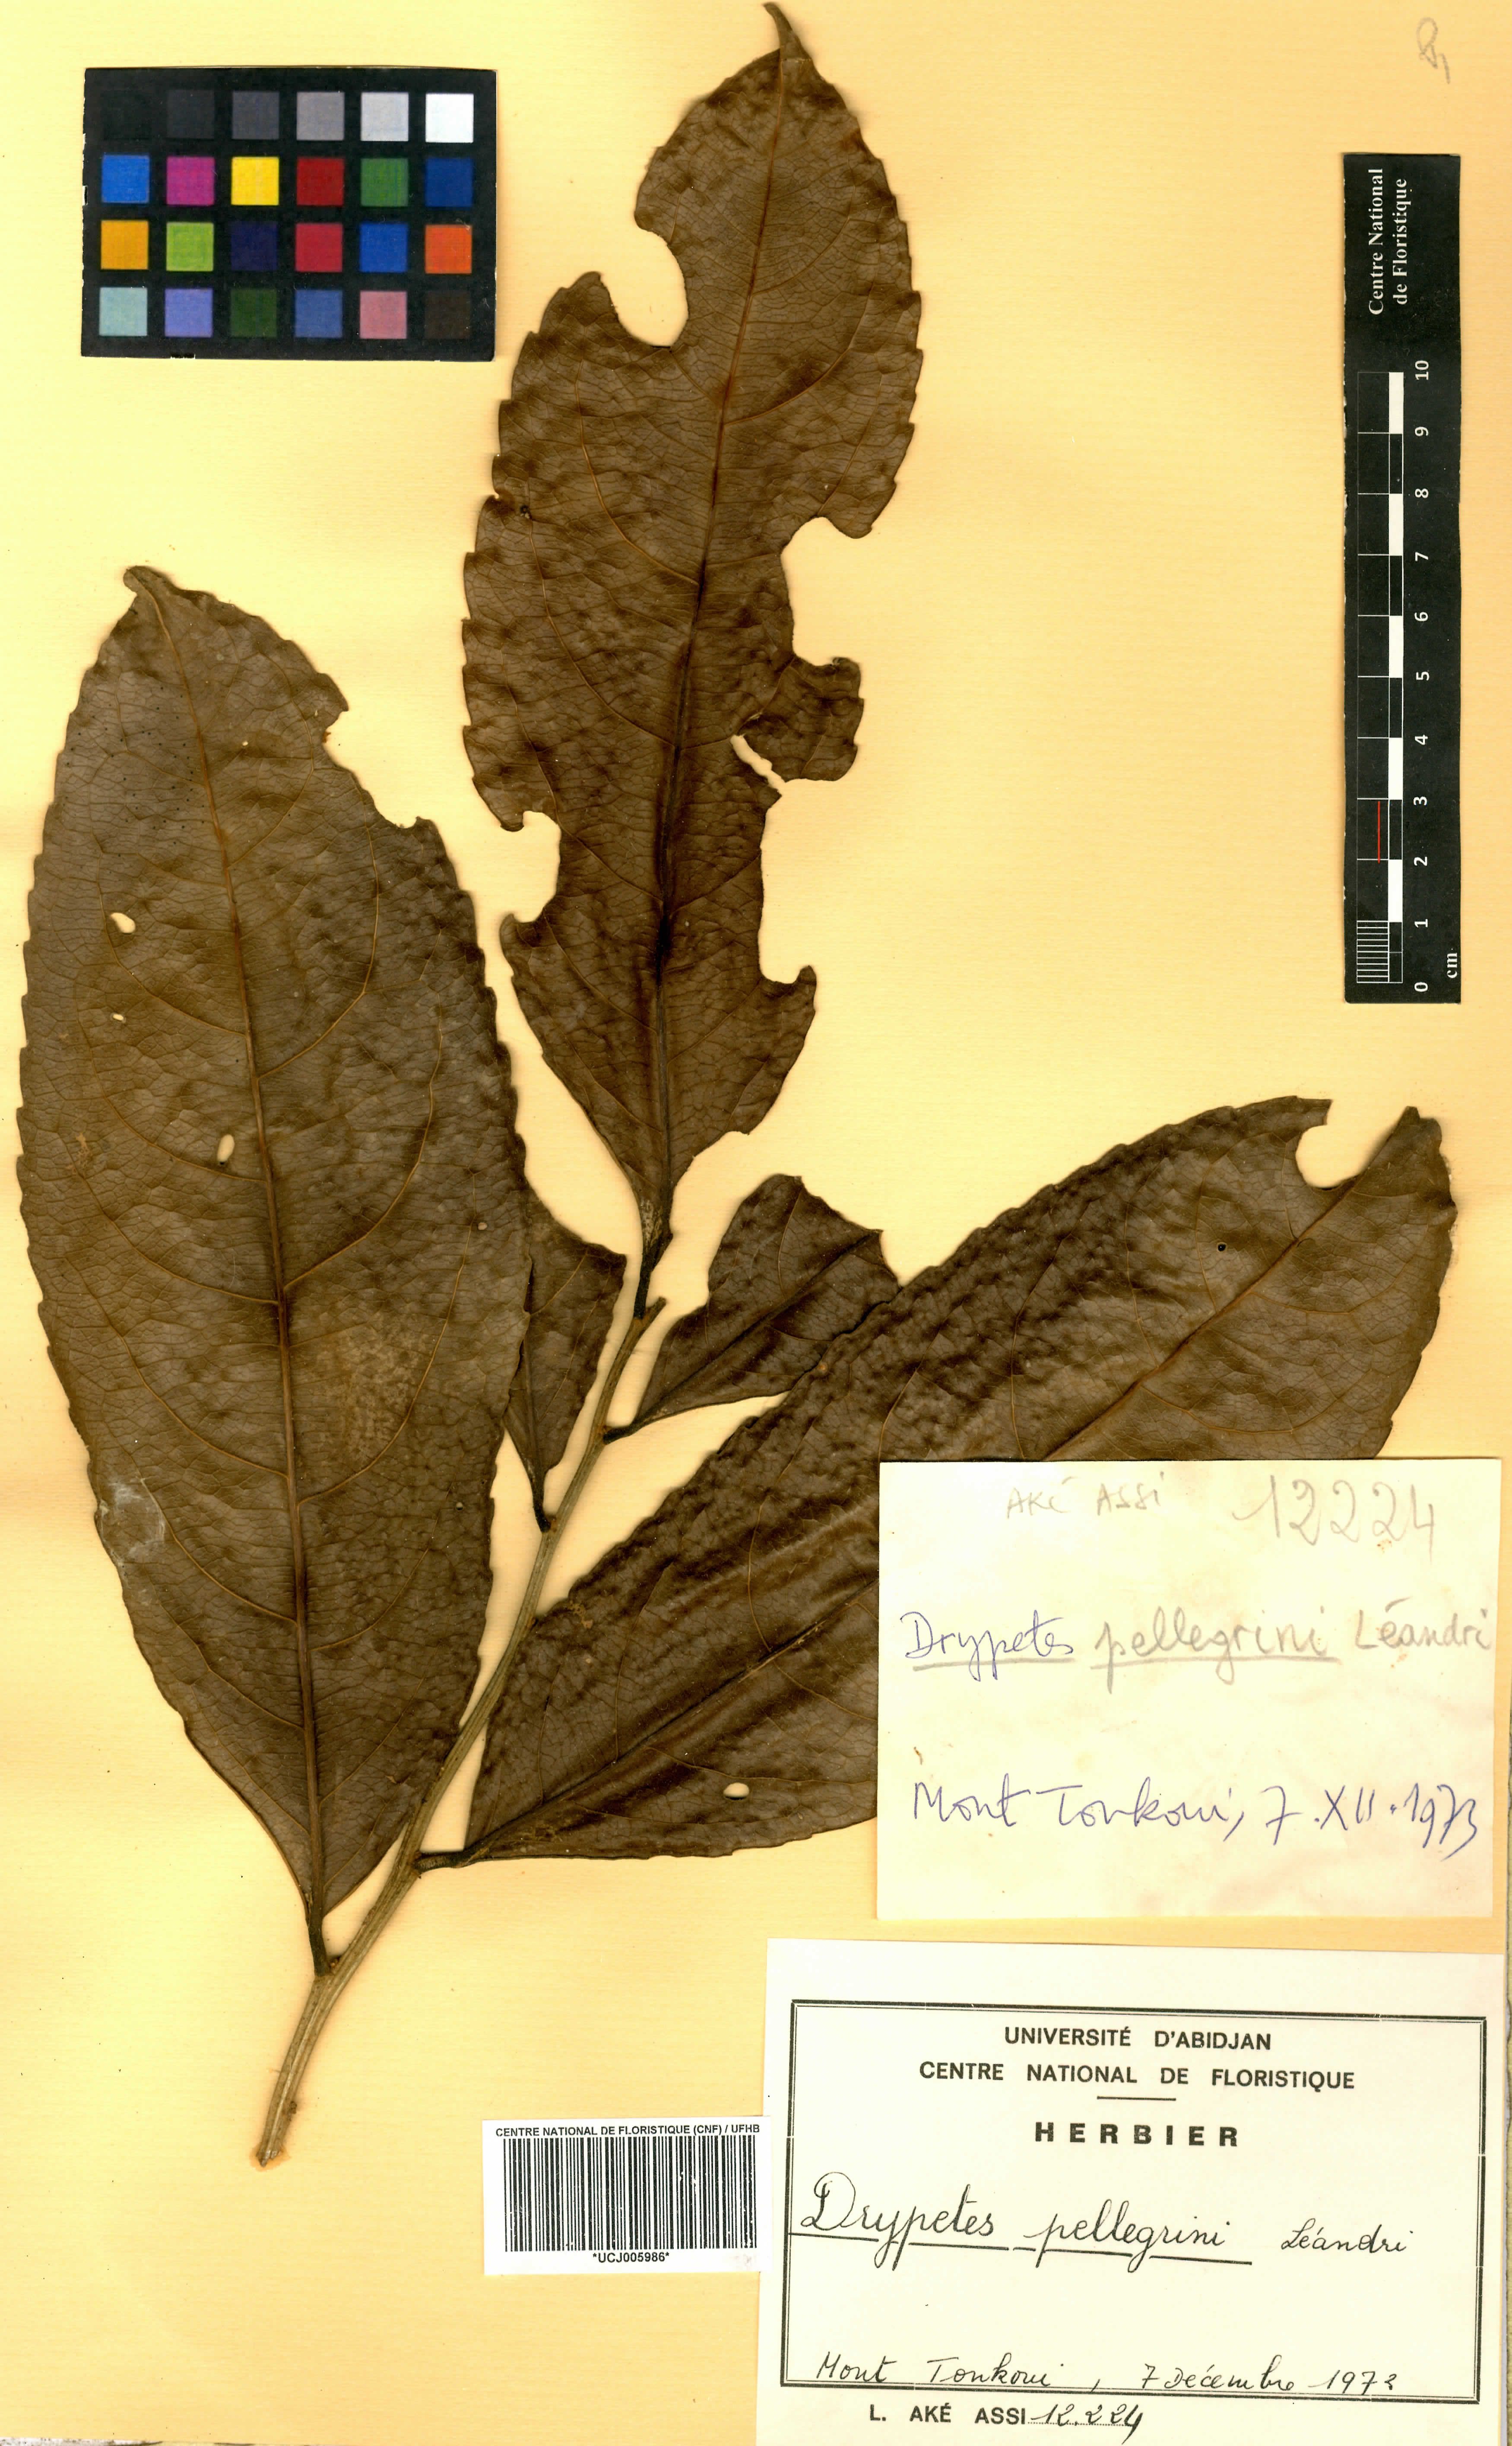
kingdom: Plantae
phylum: Tracheophyta
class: Magnoliopsida
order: Malpighiales
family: Putranjivaceae
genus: Drypetes
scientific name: Drypetes pellegrinii
